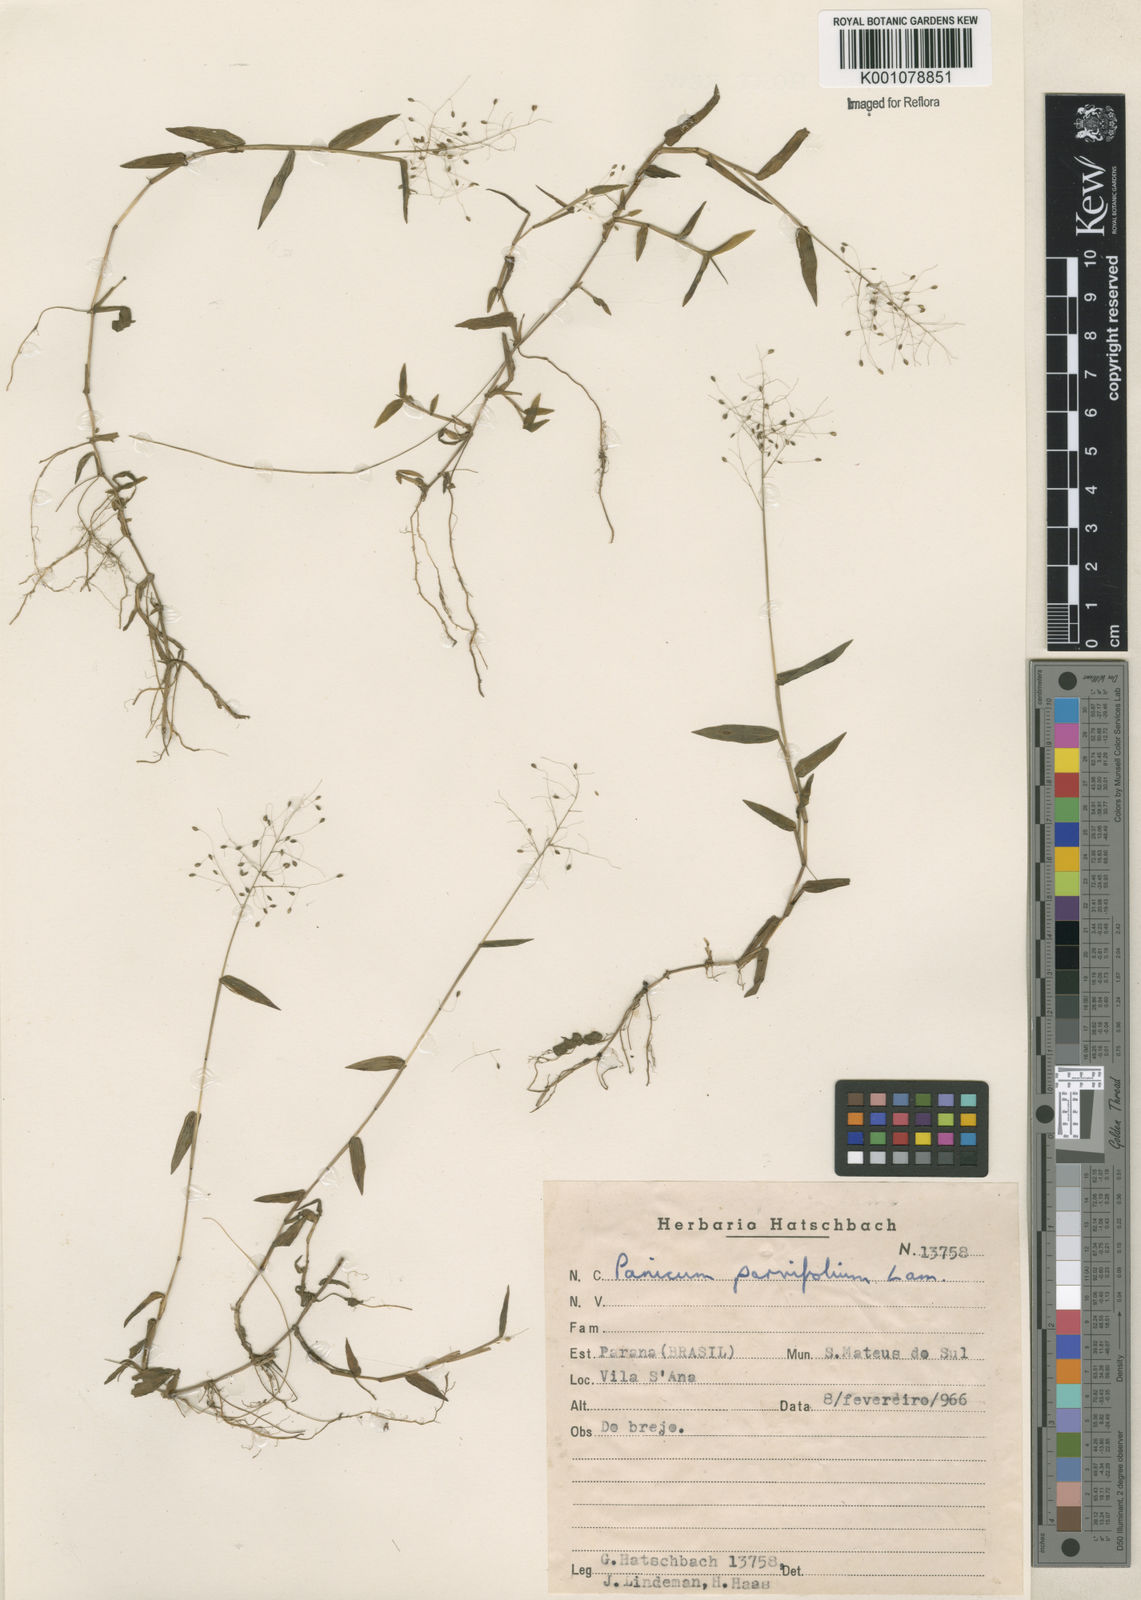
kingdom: Plantae
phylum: Tracheophyta
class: Liliopsida
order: Poales
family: Poaceae
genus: Trichanthecium
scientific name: Trichanthecium parvifolium
